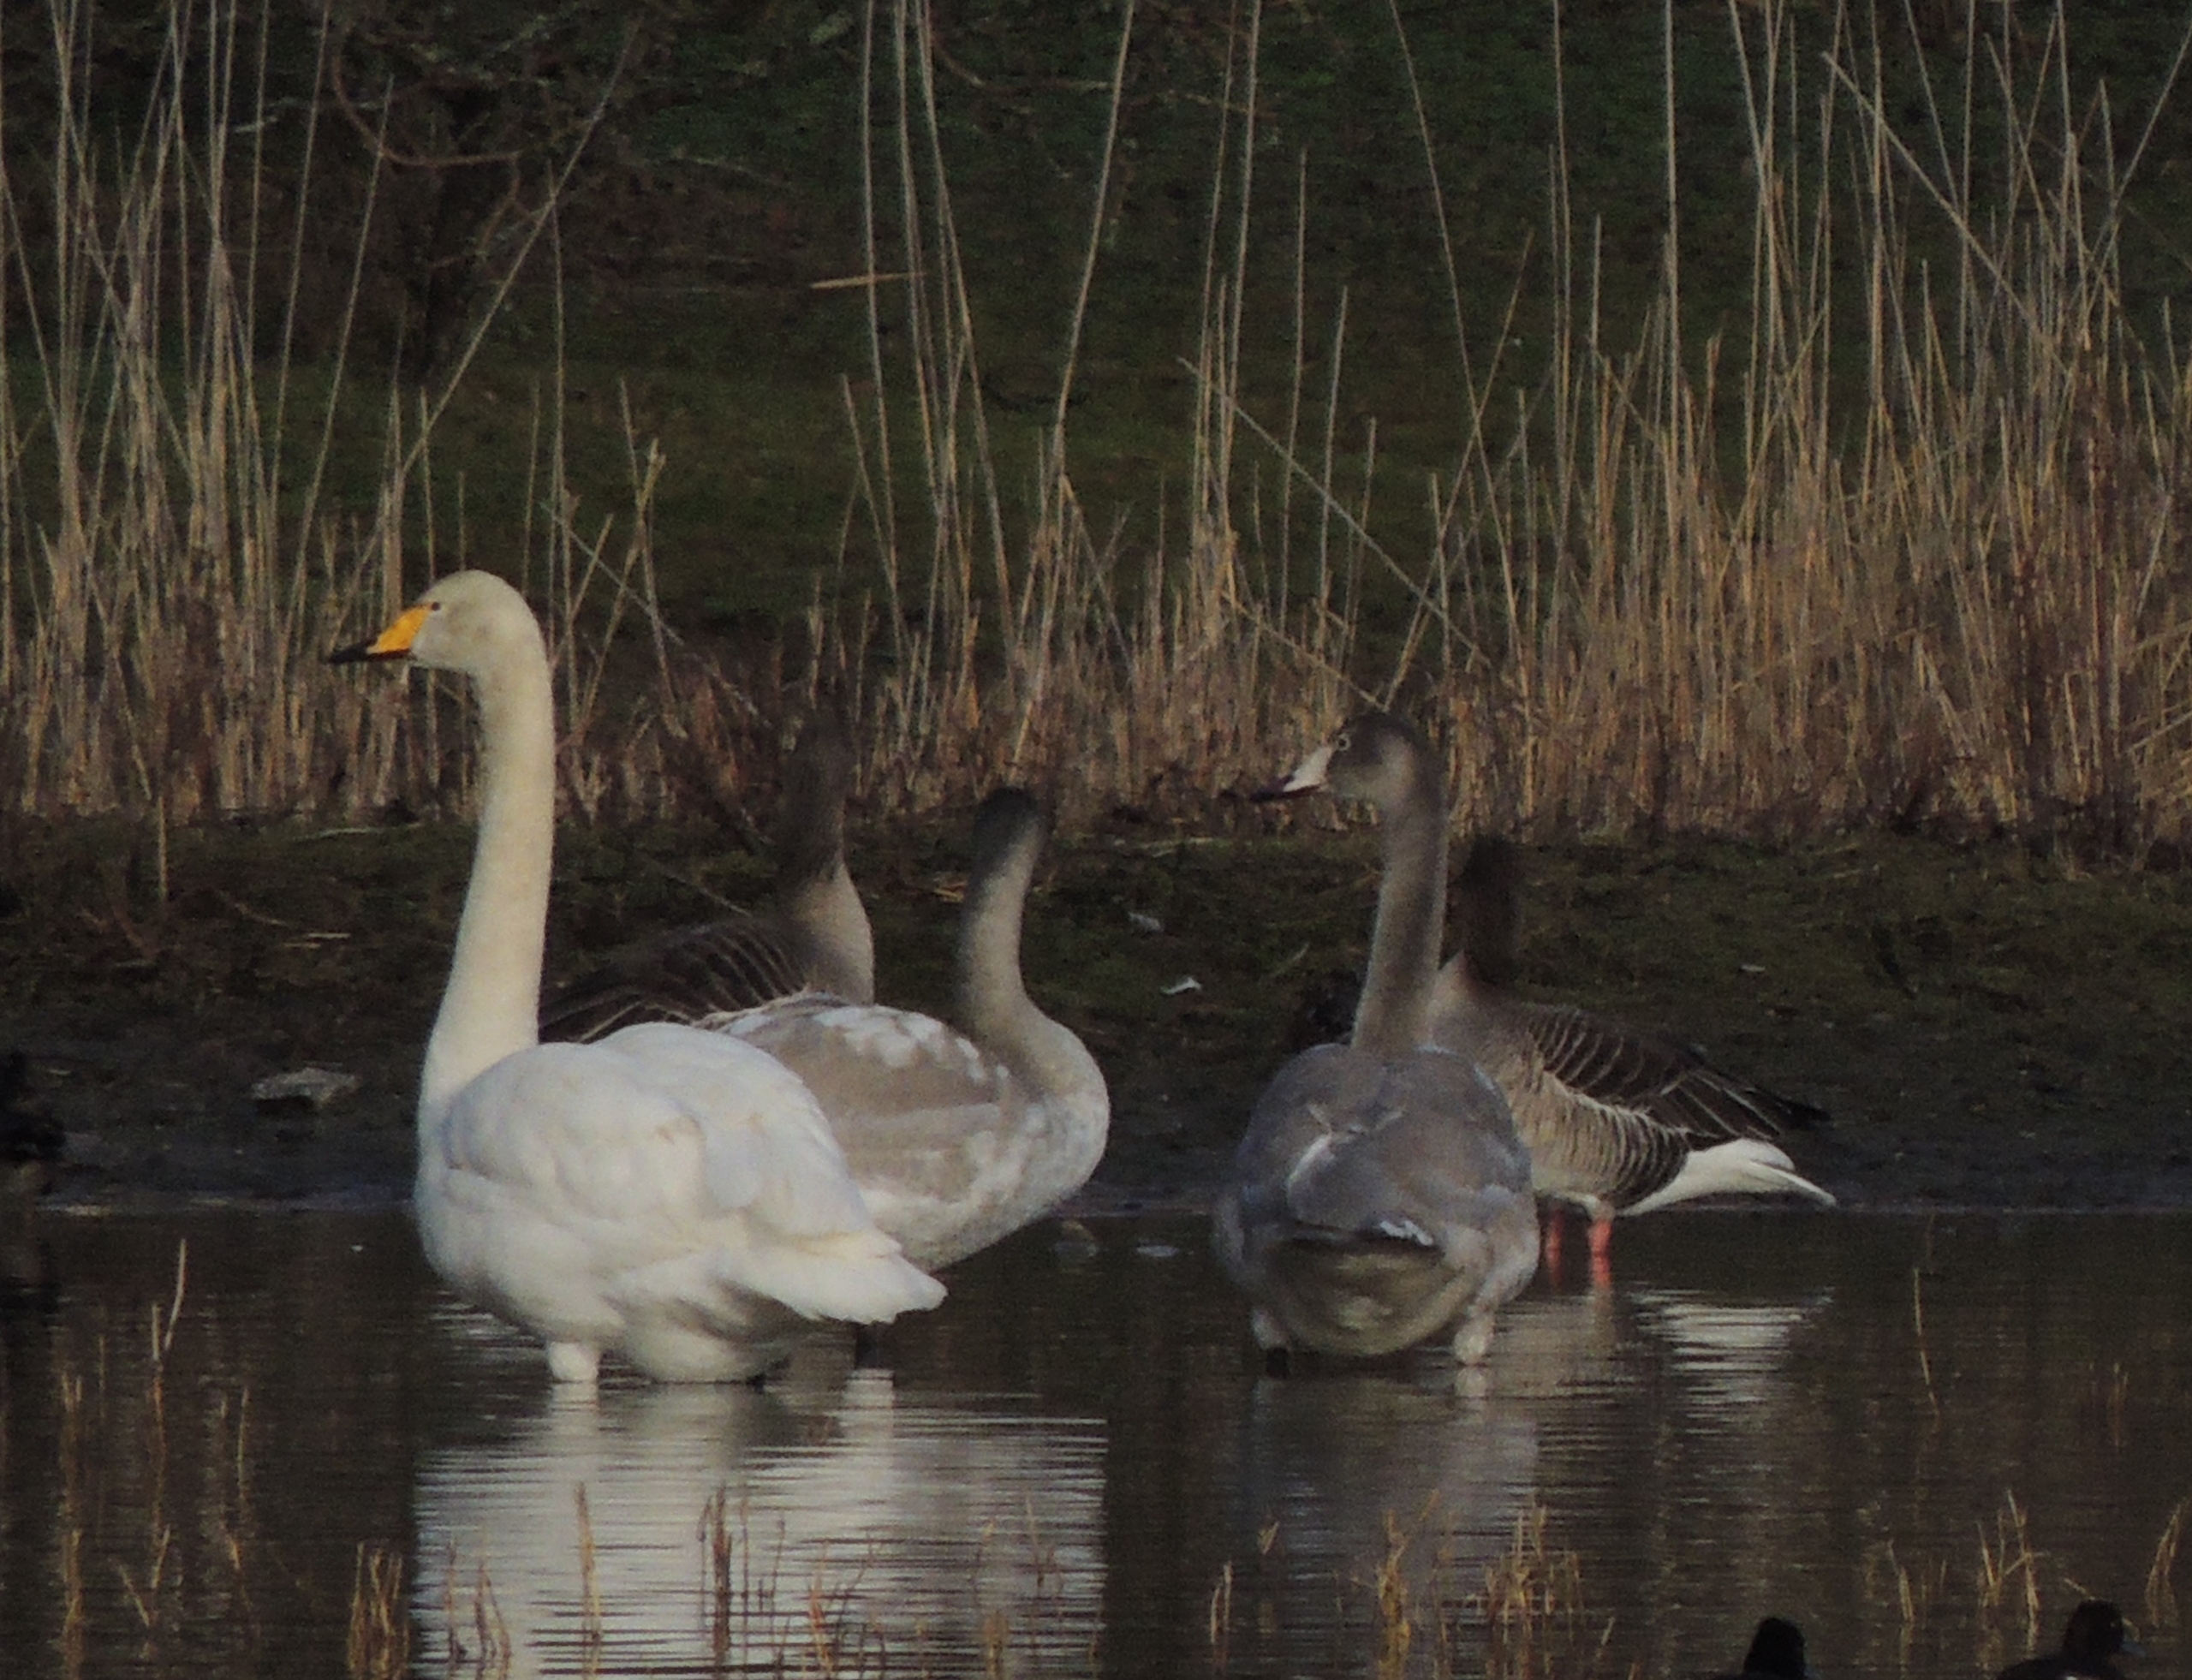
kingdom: Animalia
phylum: Chordata
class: Aves
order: Anseriformes
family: Anatidae
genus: Cygnus
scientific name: Cygnus cygnus
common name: Sangsvane
